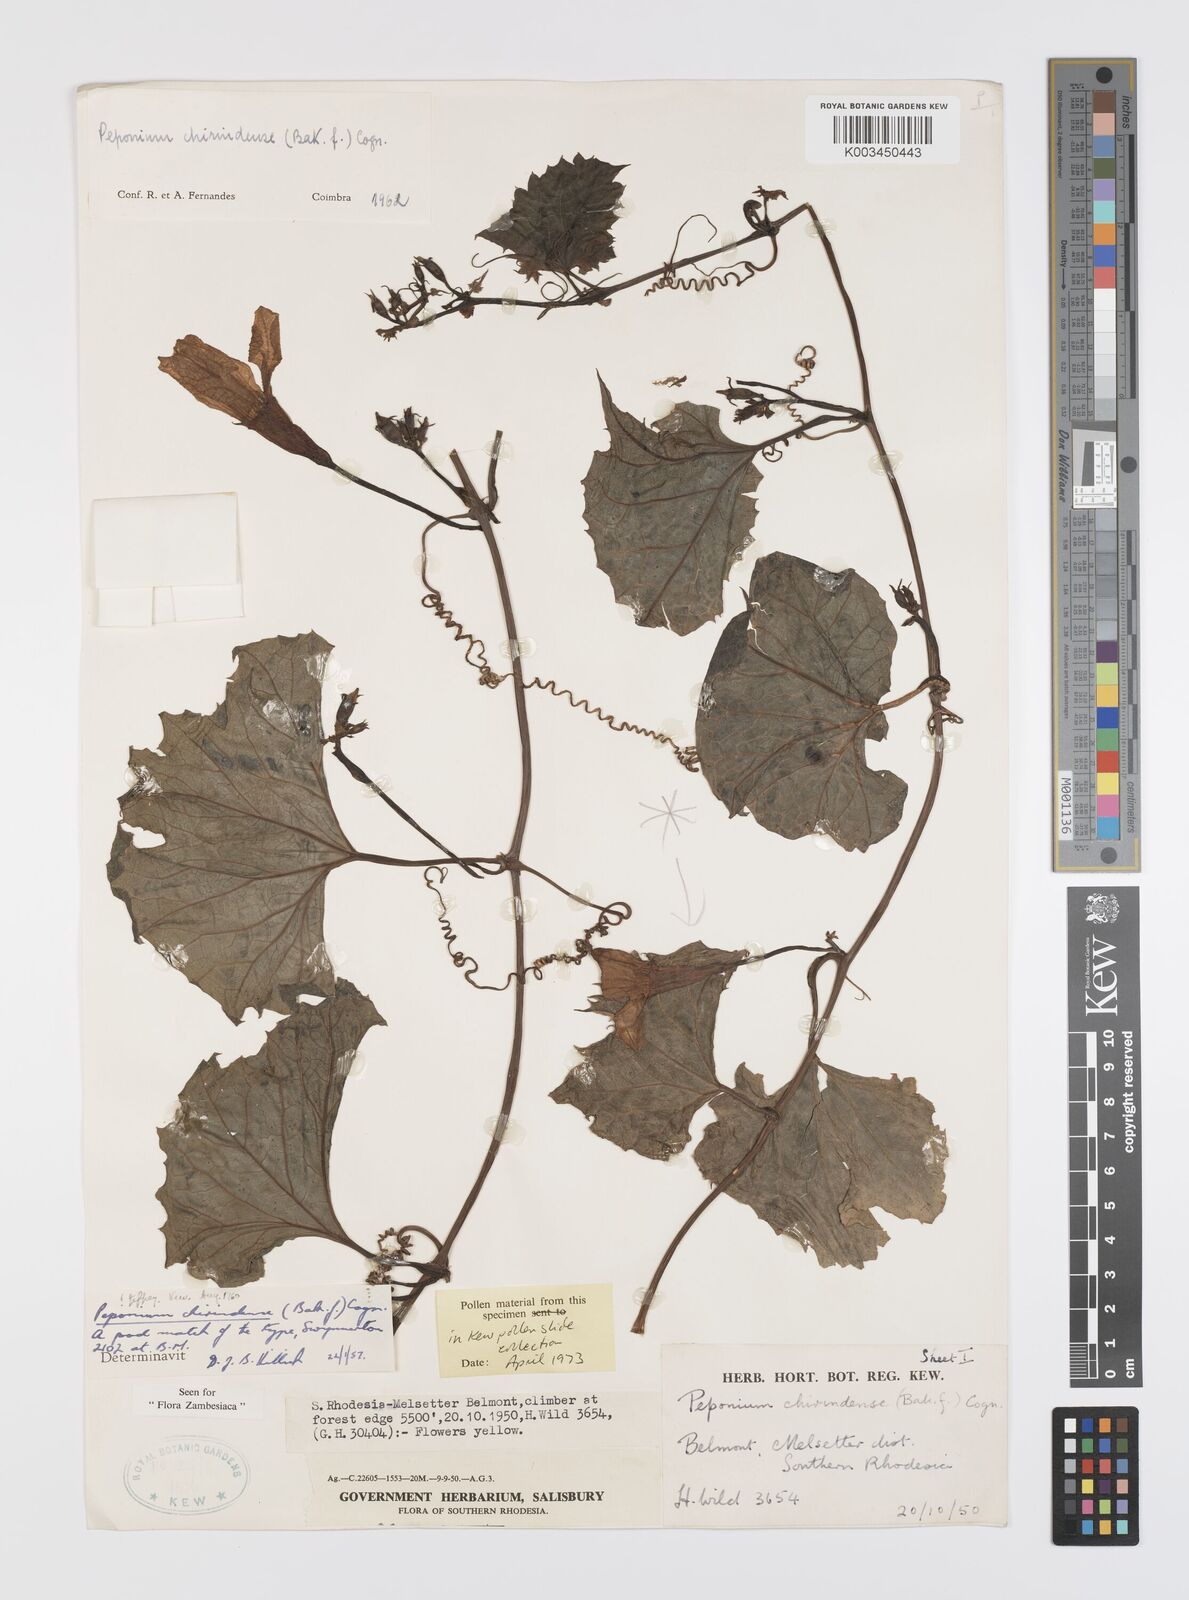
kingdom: Plantae
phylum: Tracheophyta
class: Magnoliopsida
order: Cucurbitales
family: Cucurbitaceae
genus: Peponium
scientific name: Peponium chirindense
